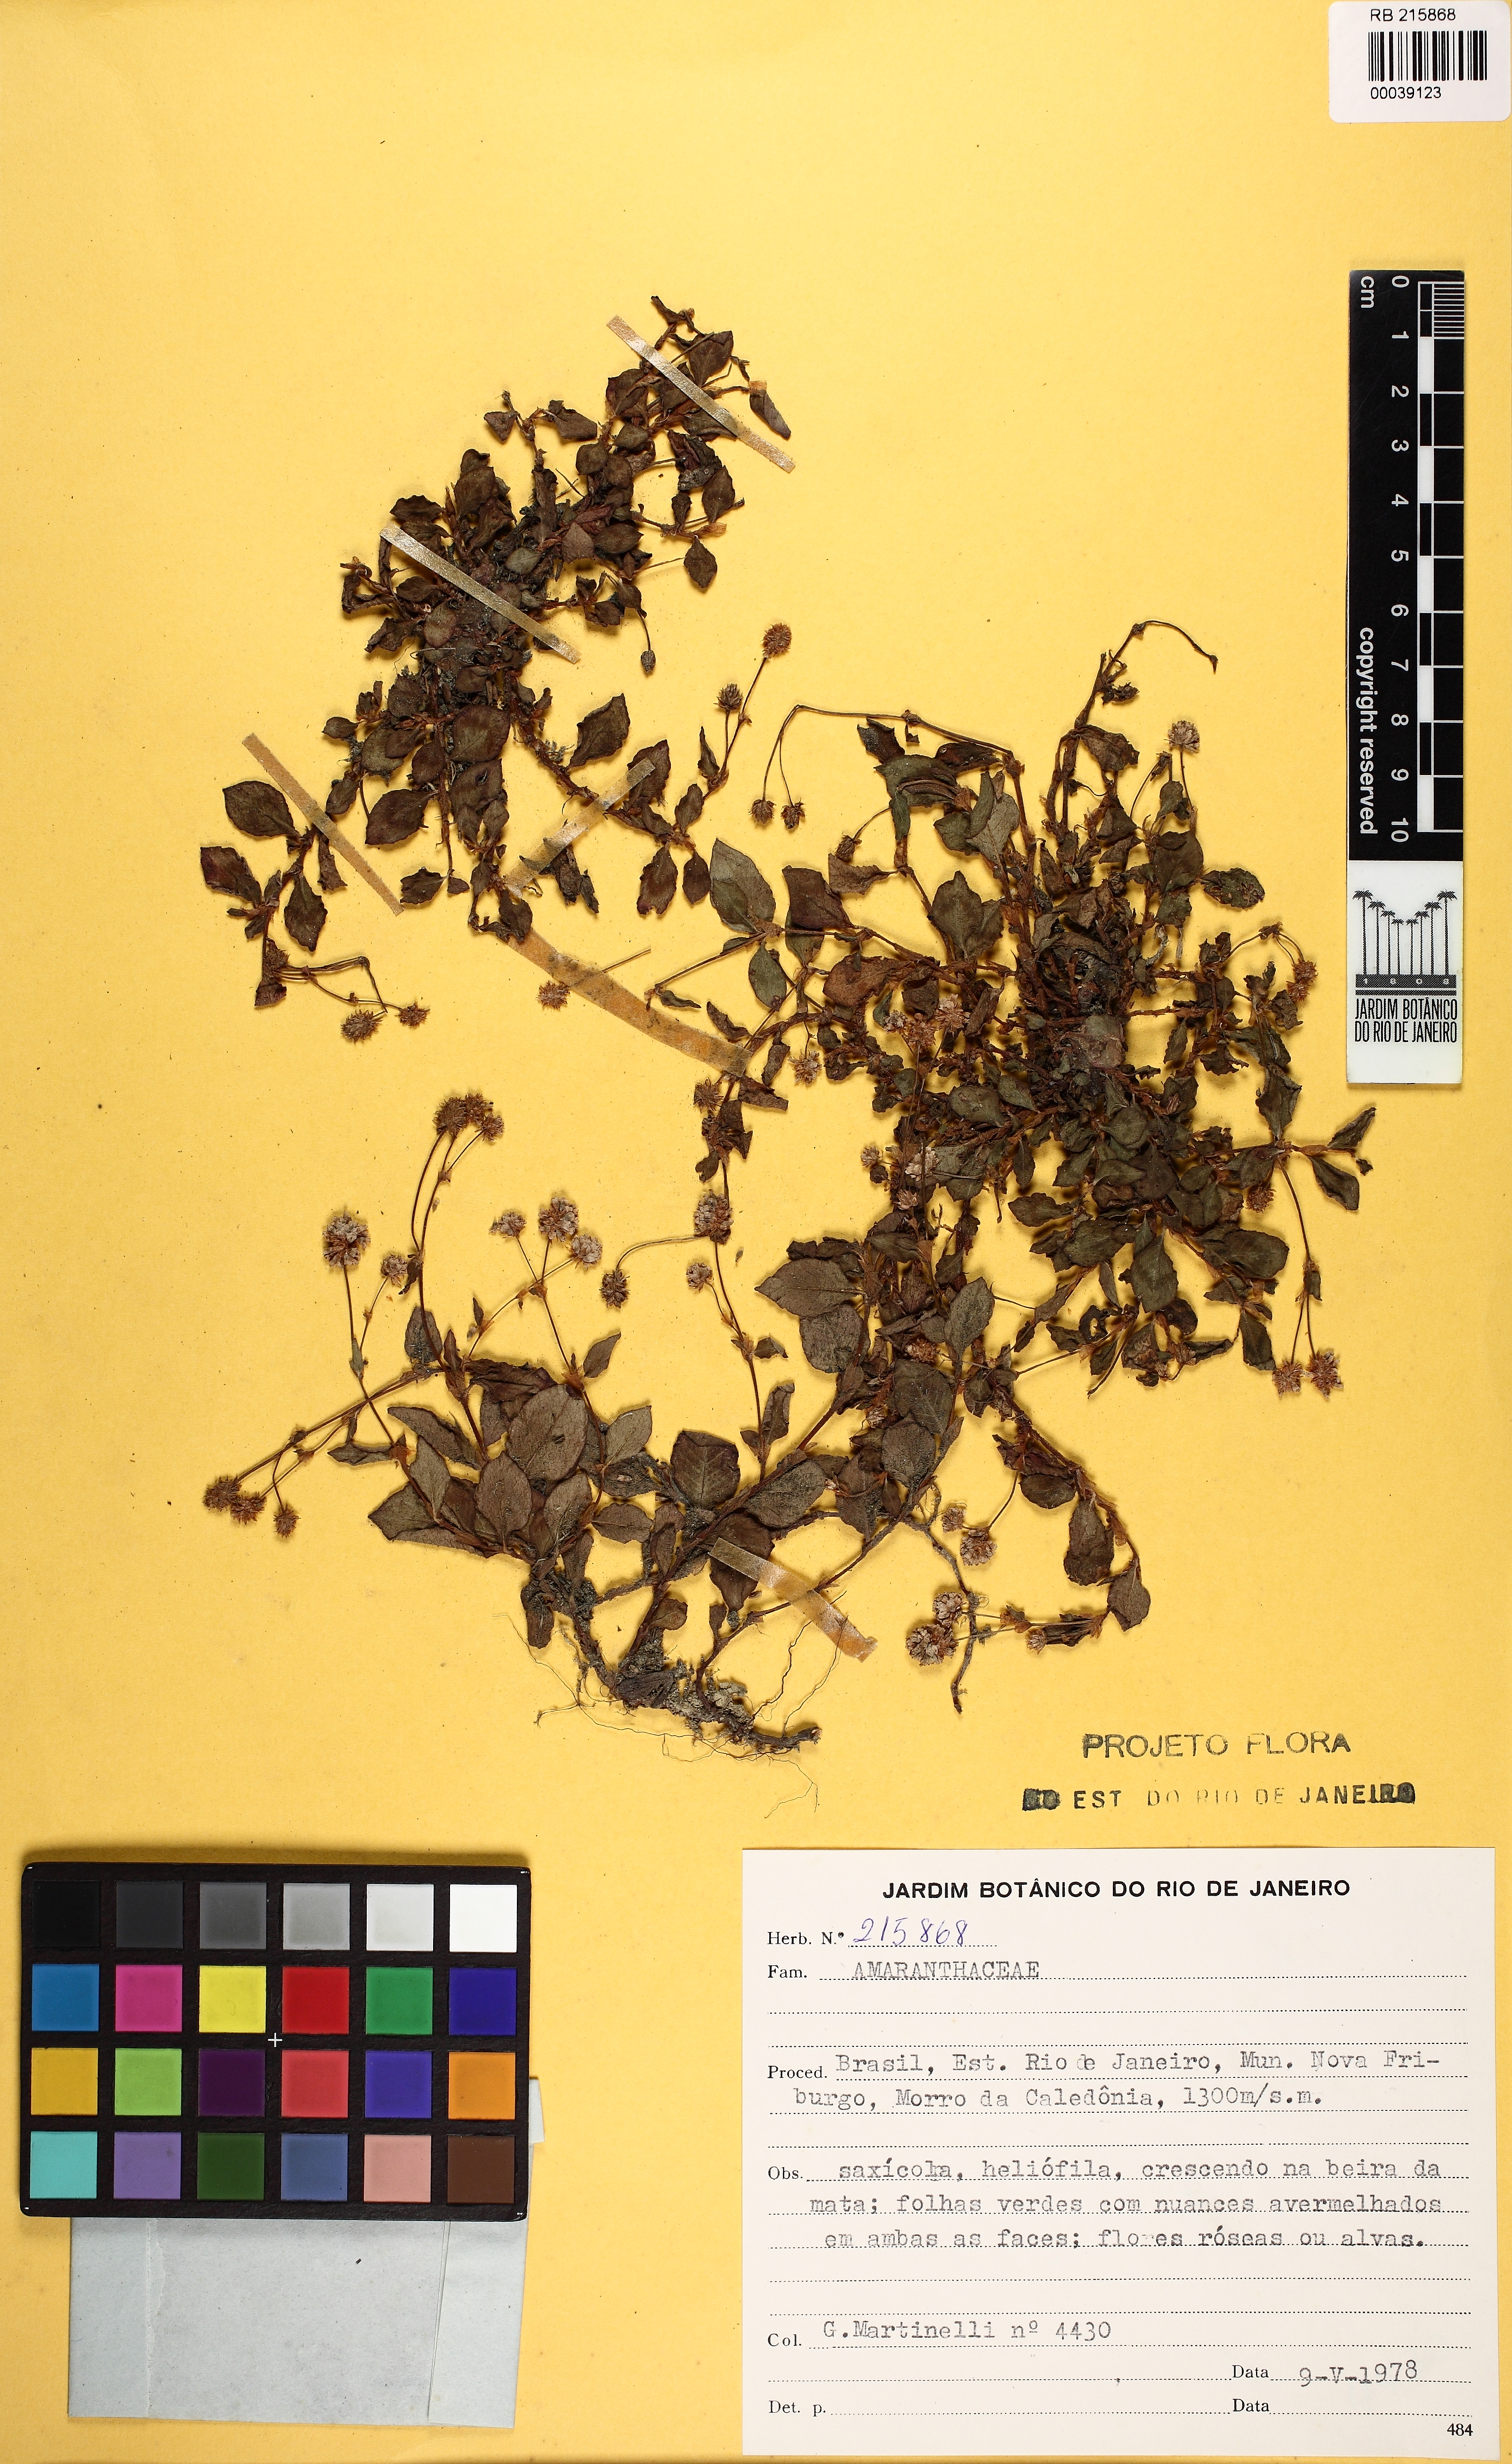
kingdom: Plantae
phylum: Tracheophyta
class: Magnoliopsida
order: Caryophyllales
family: Amaranthaceae
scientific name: Amaranthaceae
